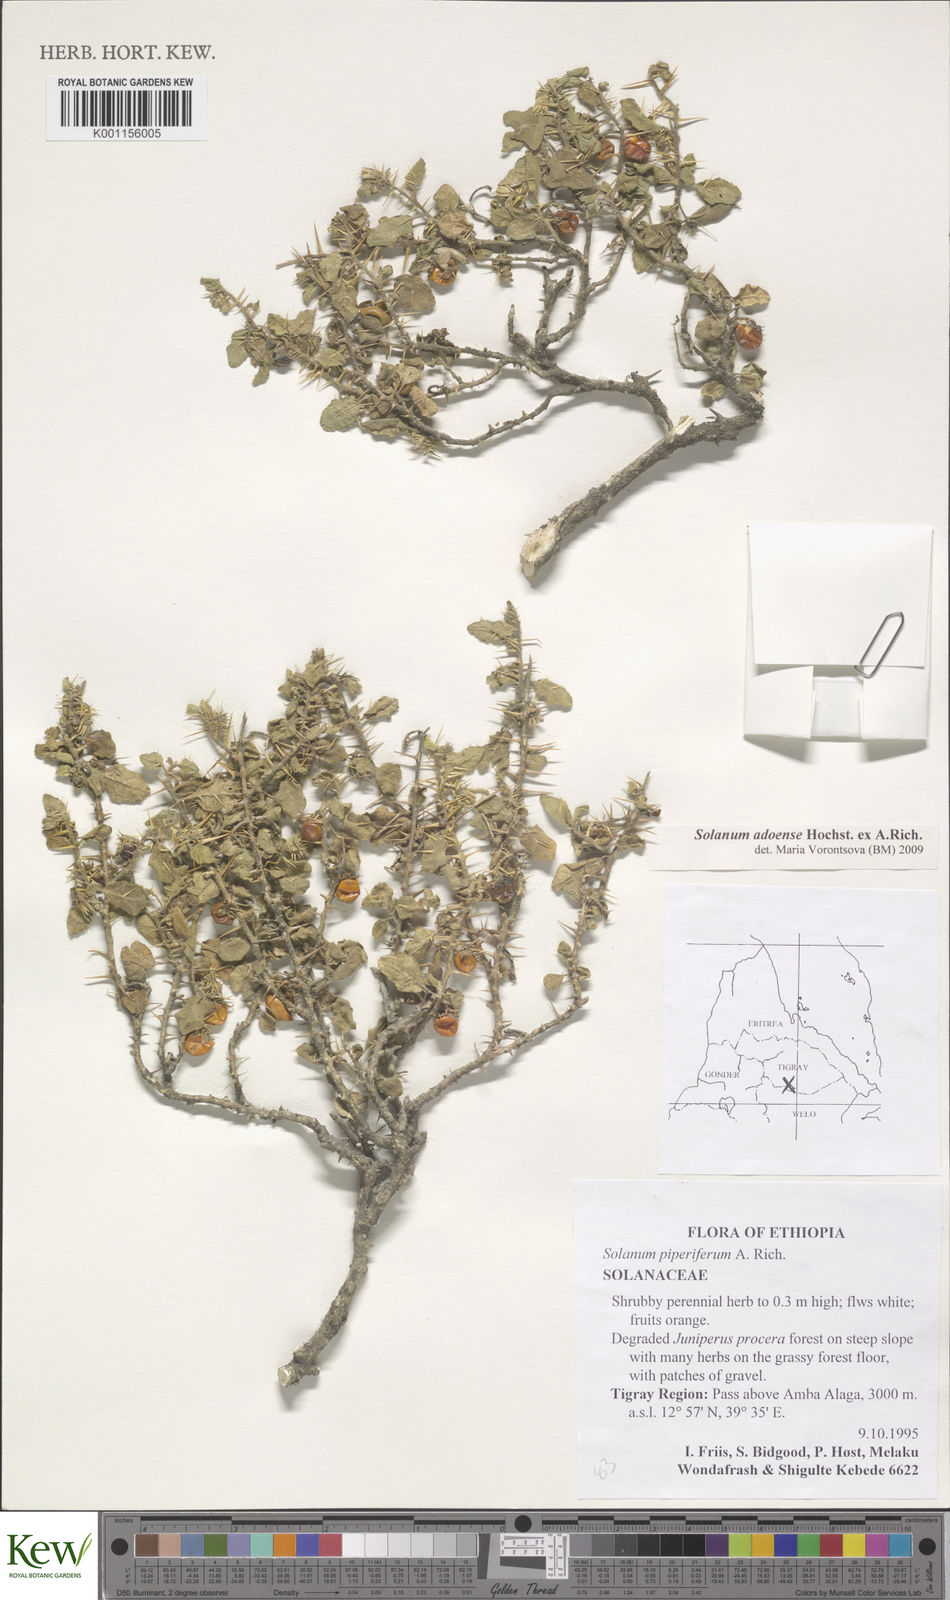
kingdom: Plantae
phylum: Tracheophyta
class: Magnoliopsida
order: Solanales
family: Solanaceae
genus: Solanum
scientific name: Solanum adoense
